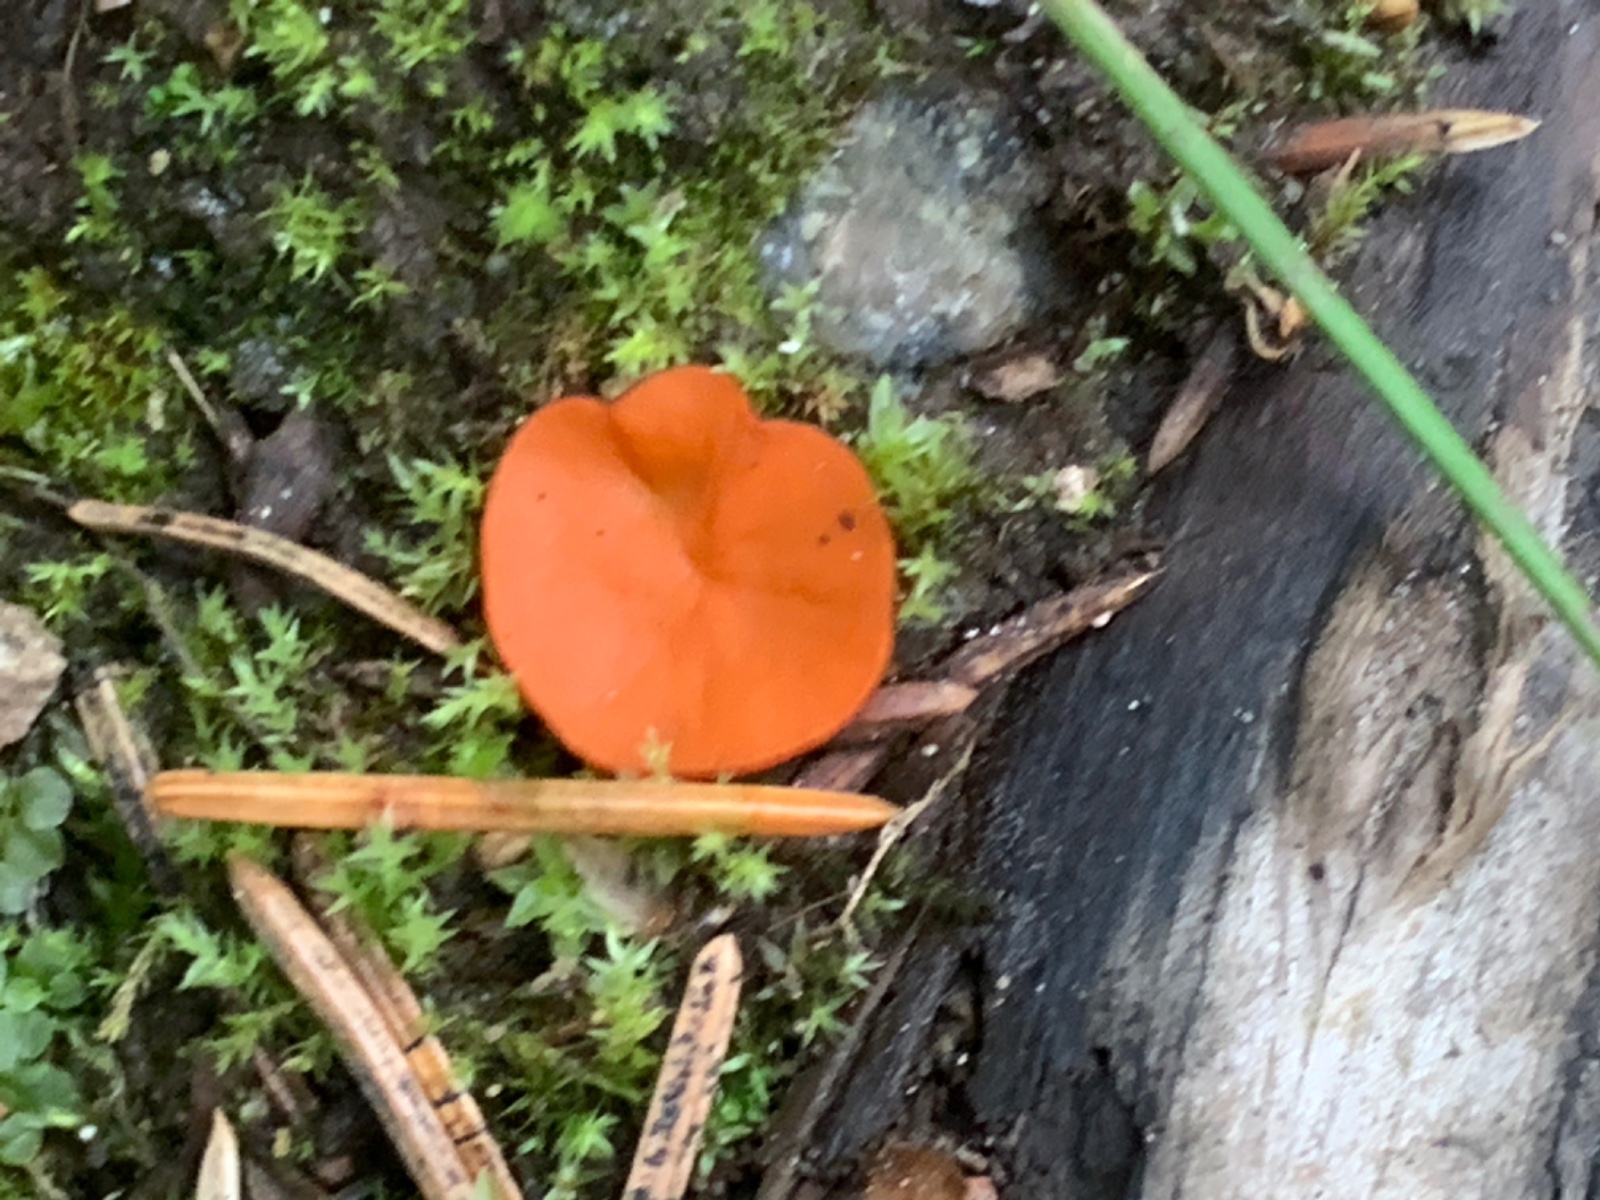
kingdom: Fungi
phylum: Ascomycota
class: Pezizomycetes
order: Pezizales
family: Pulvinulaceae
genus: Pulvinula
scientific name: Pulvinula convexella
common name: stor pudebæger
